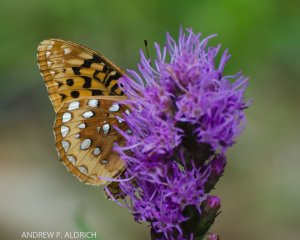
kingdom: Animalia
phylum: Arthropoda
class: Insecta
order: Lepidoptera
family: Nymphalidae
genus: Speyeria
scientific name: Speyeria cybele
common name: Great Spangled Fritillary
